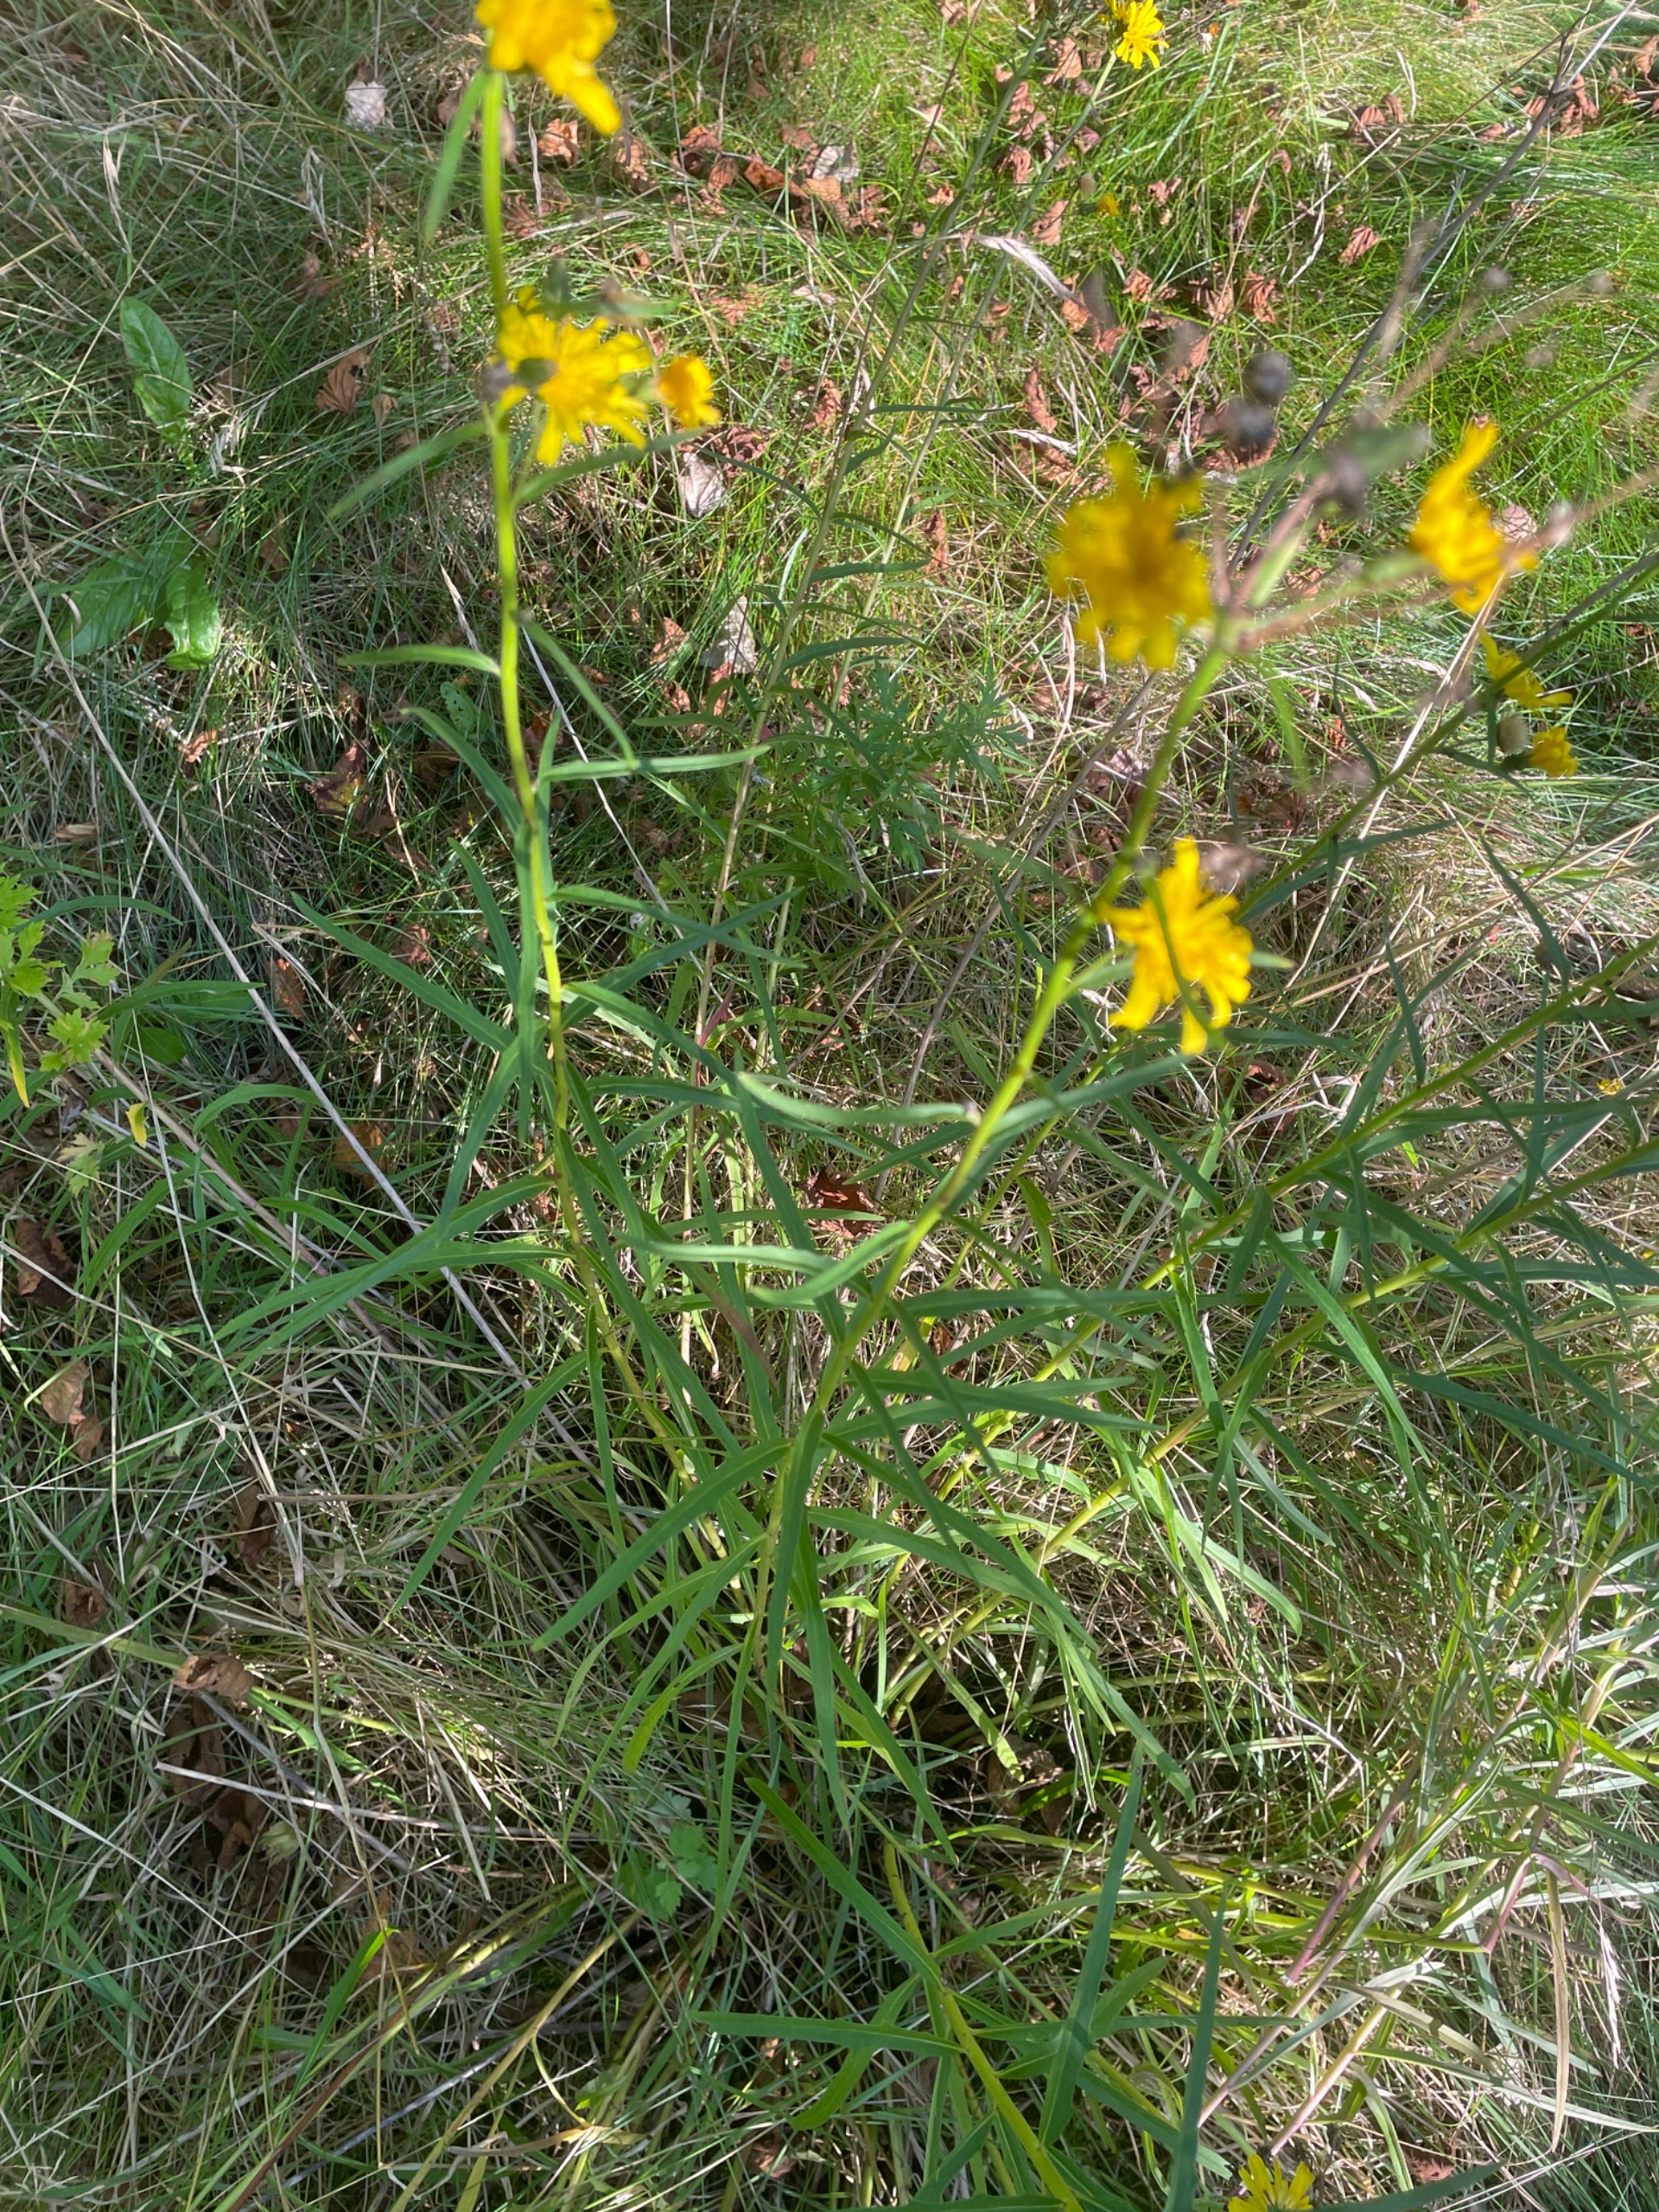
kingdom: Plantae
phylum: Tracheophyta
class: Magnoliopsida
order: Asterales
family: Asteraceae
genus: Hieracium
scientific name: Hieracium umbellatum
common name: Smalbladet høgeurt
